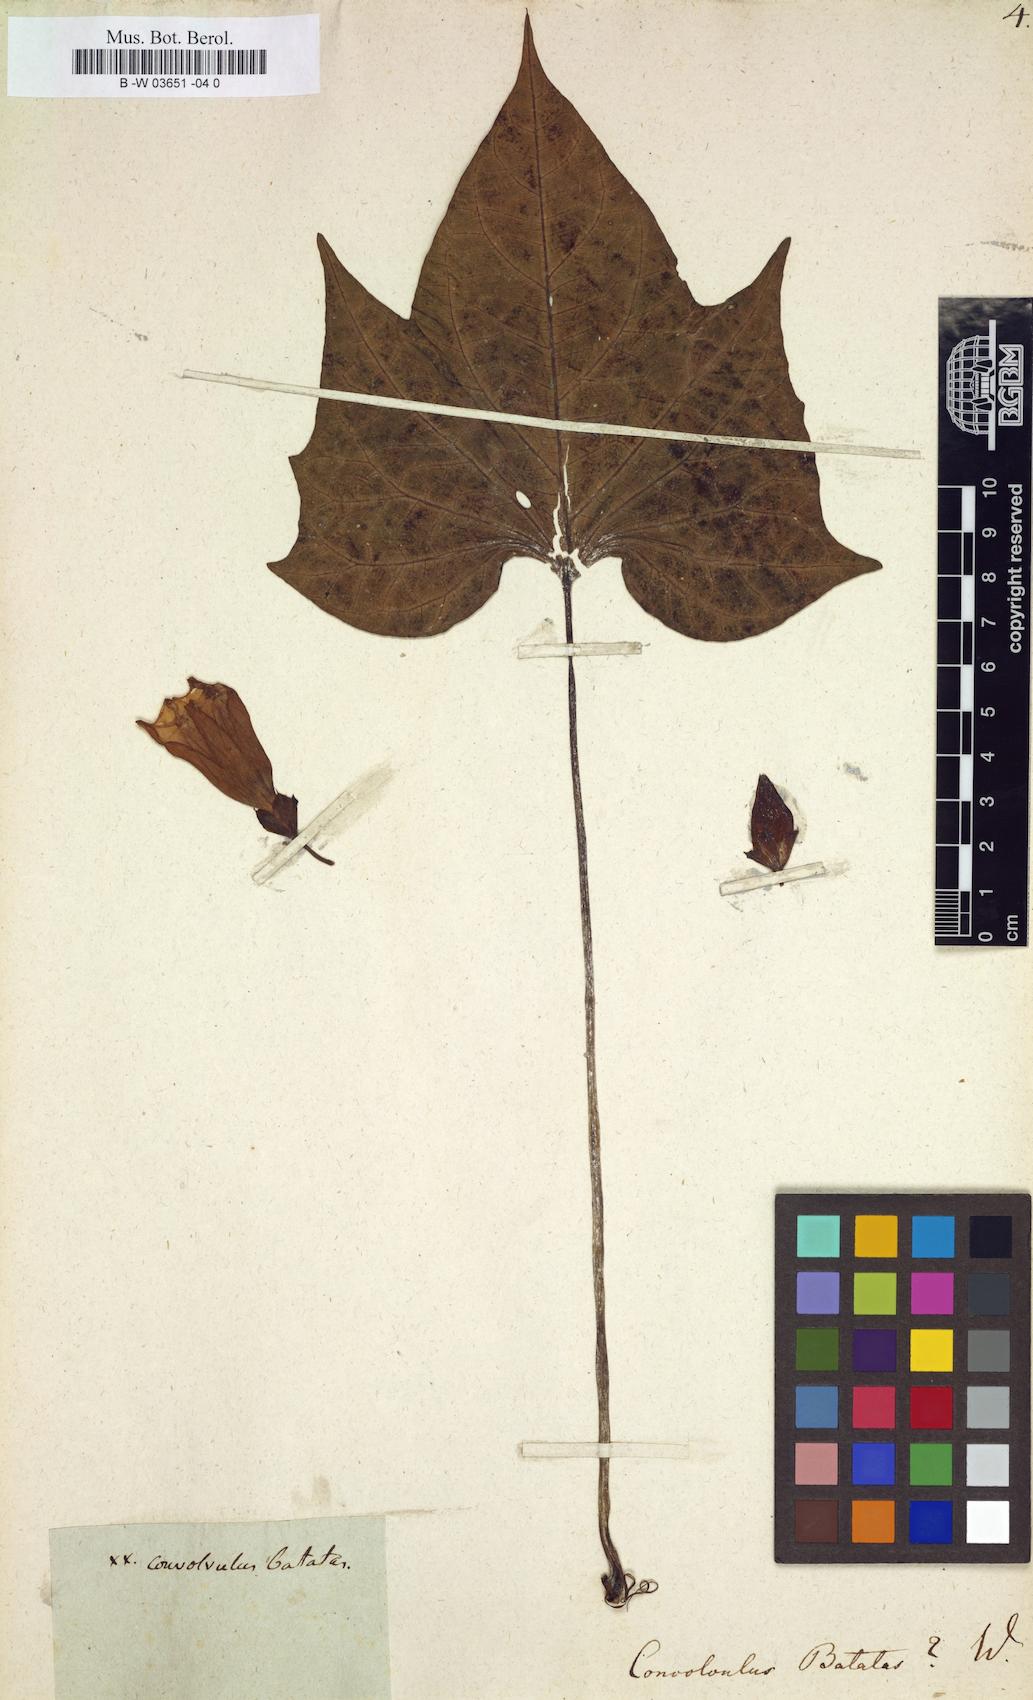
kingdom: Plantae
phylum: Tracheophyta
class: Magnoliopsida
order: Solanales
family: Convolvulaceae
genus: Ipomoea
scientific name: Ipomoea batatas
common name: Sweet-potato
